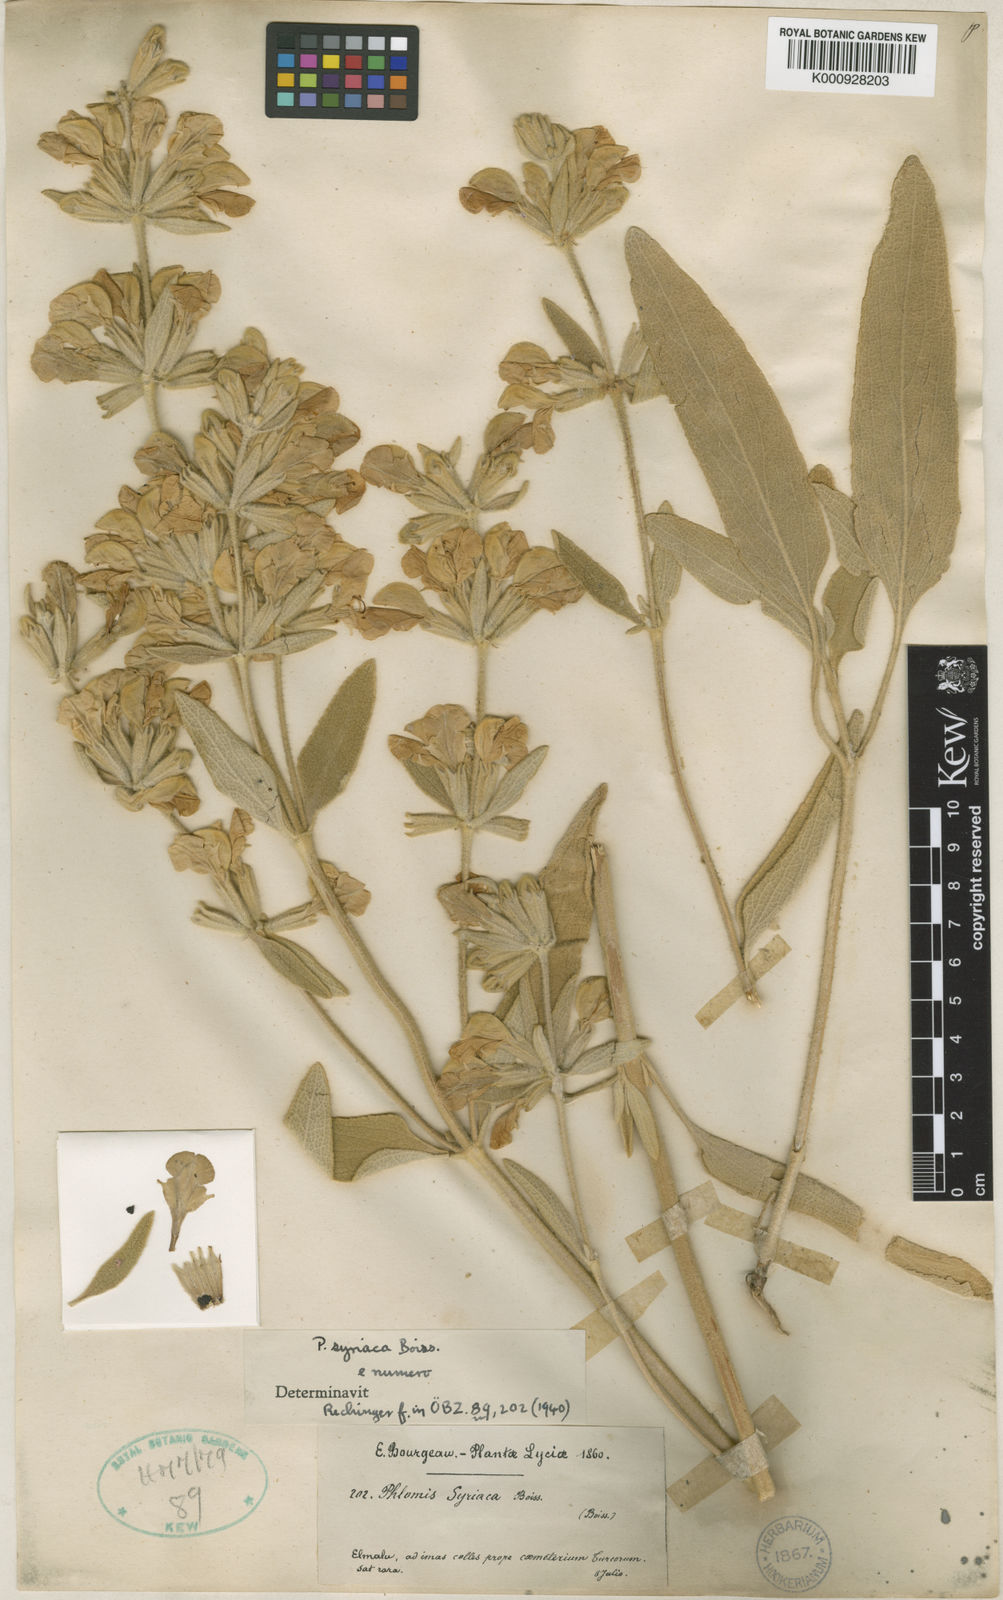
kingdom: Plantae
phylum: Tracheophyta
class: Magnoliopsida
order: Lamiales
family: Lamiaceae
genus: Phlomis
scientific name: Phlomis syriaca
